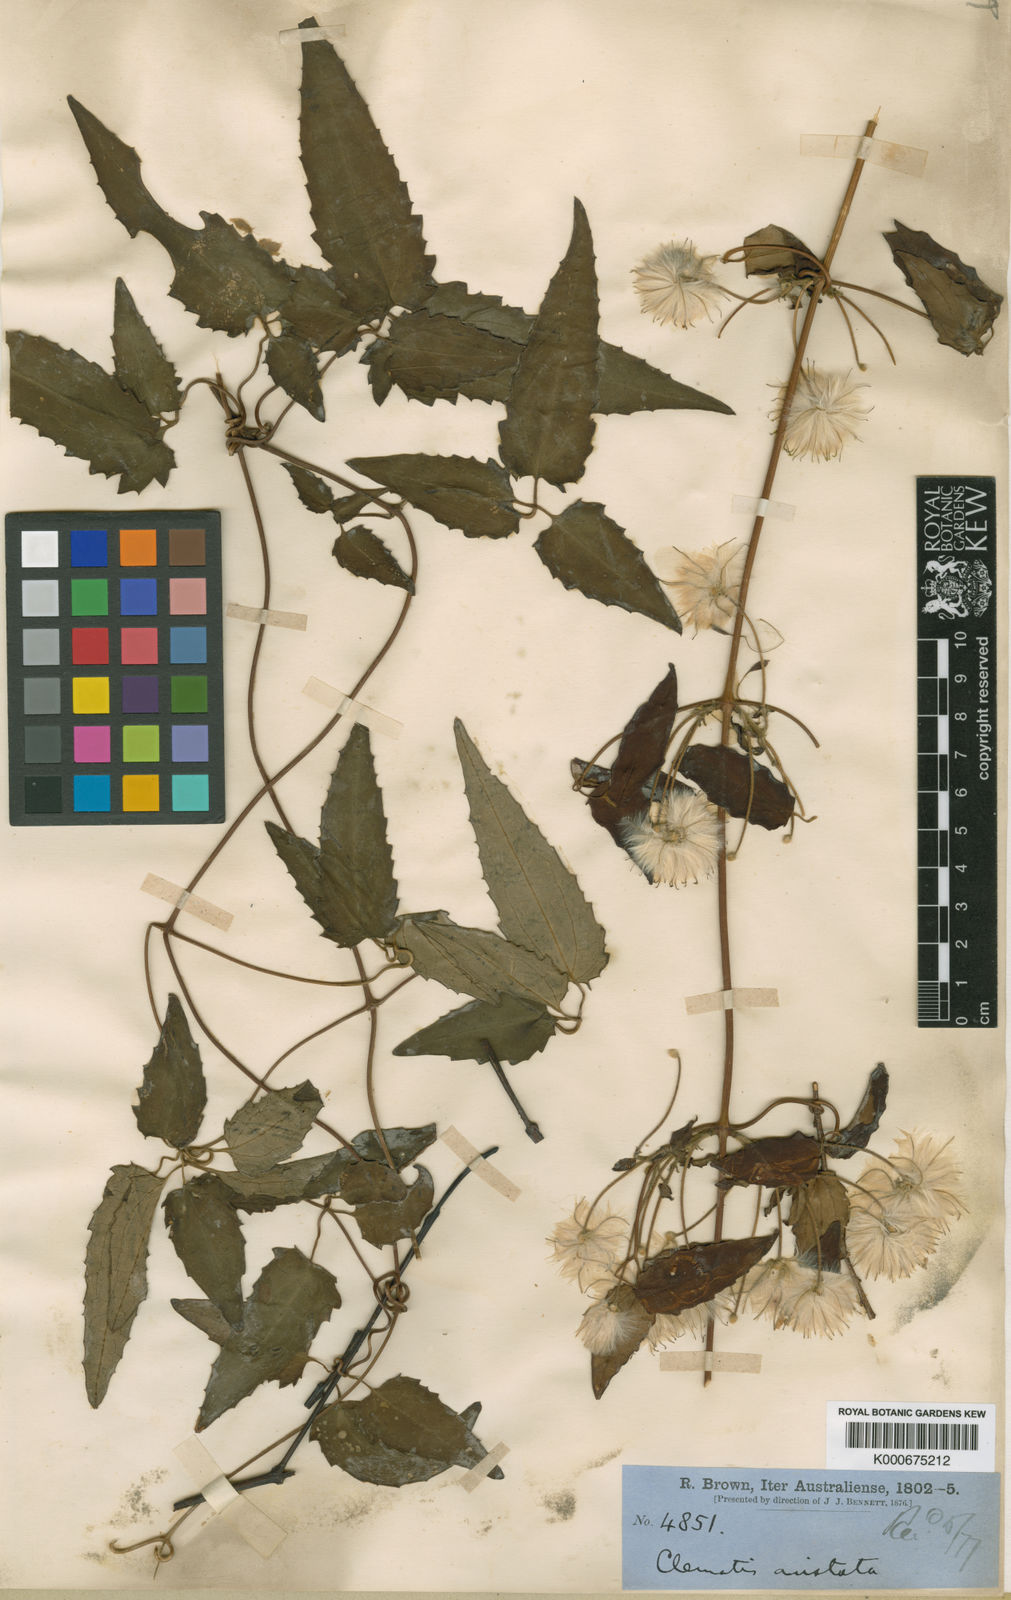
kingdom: Plantae
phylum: Tracheophyta
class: Magnoliopsida
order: Ranunculales
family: Ranunculaceae
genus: Clematis
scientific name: Clematis aristata
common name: Mountain clematis
